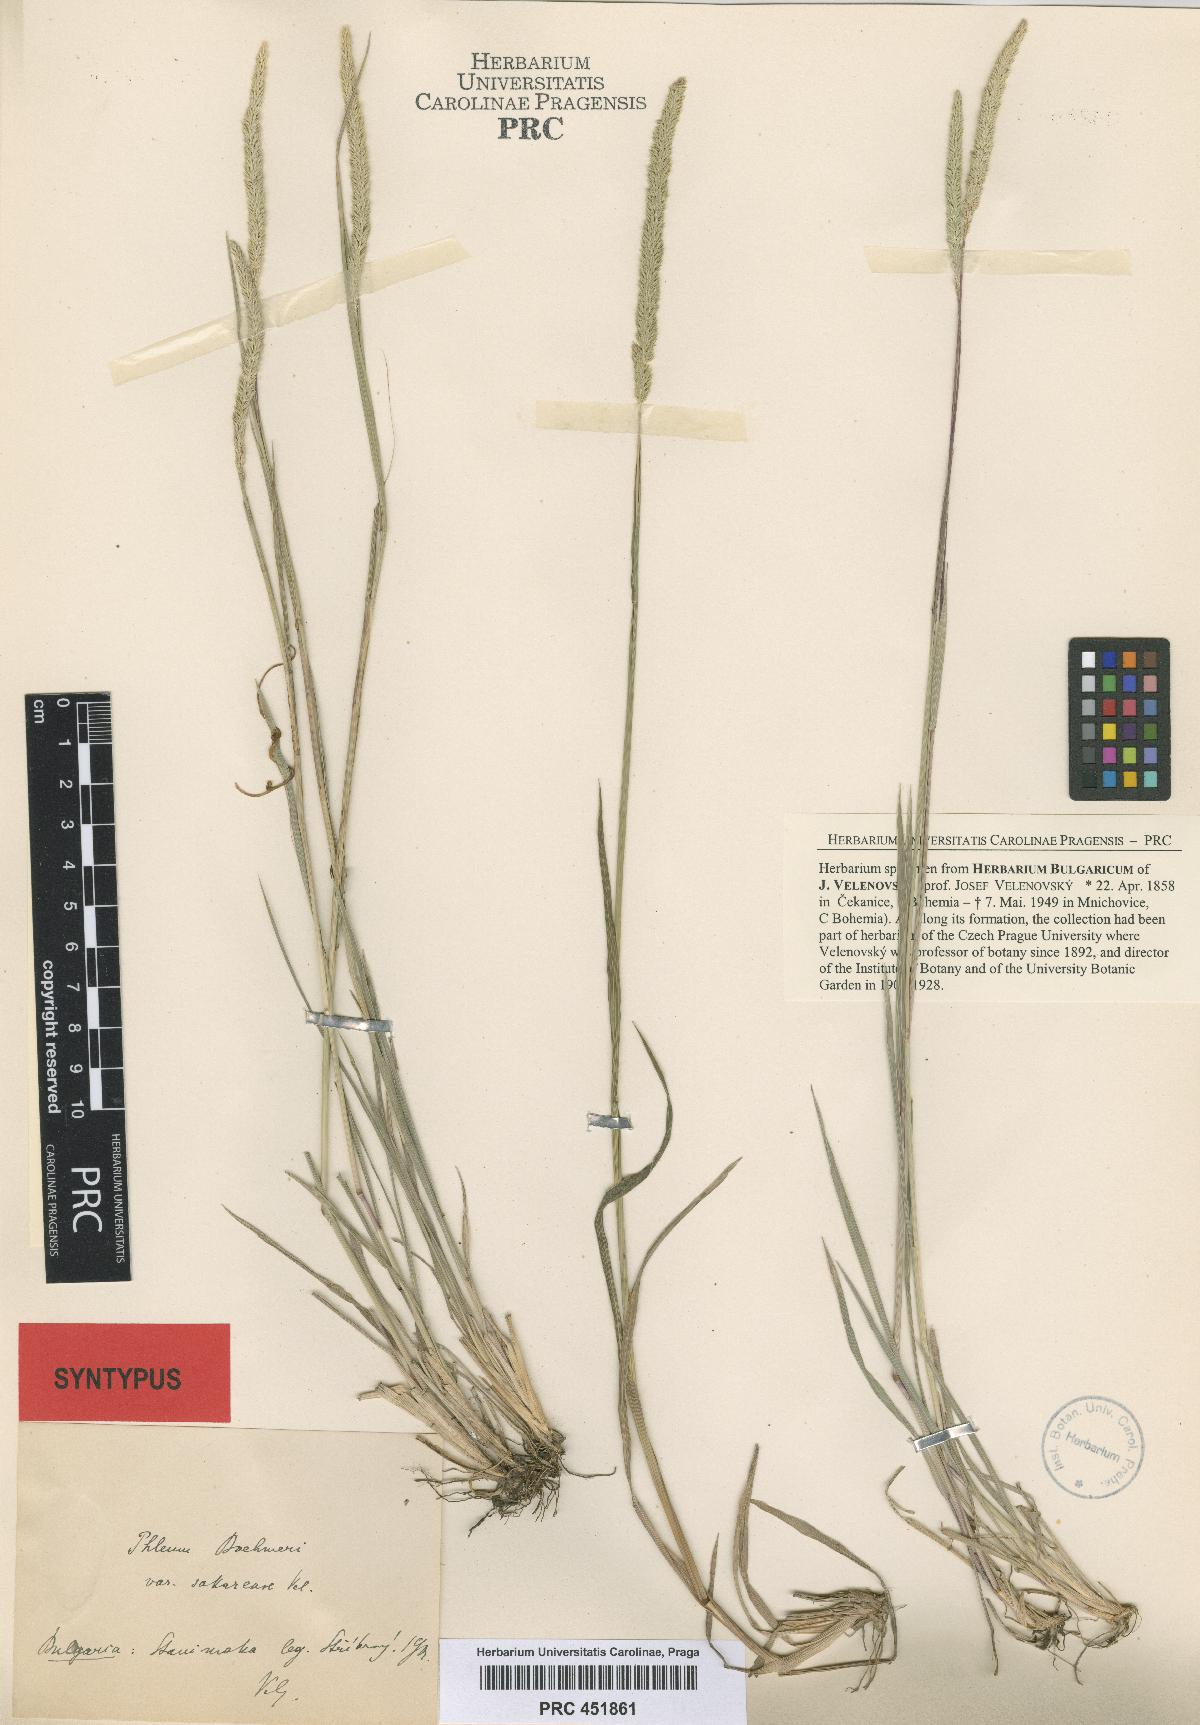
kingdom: Plantae
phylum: Tracheophyta
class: Liliopsida
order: Poales
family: Poaceae
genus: Phleum
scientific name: Phleum phleoides
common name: Purple-stem cat's-tail
